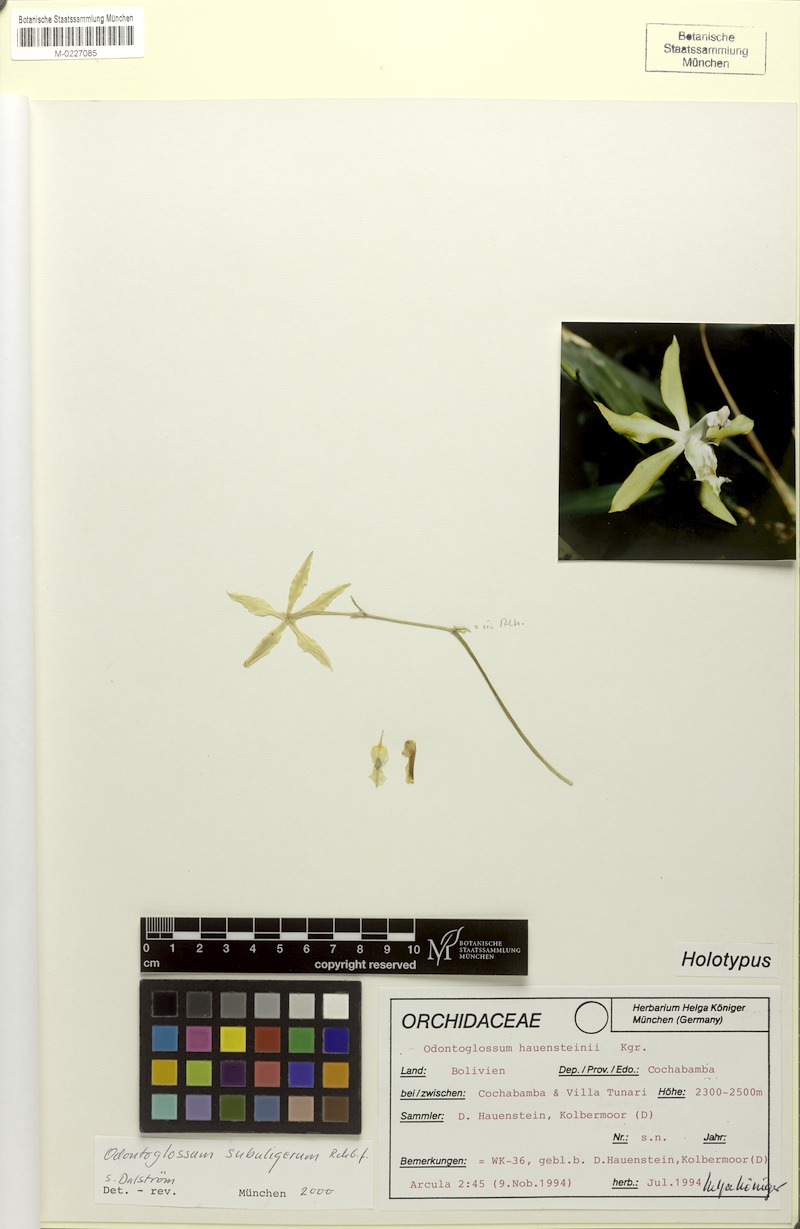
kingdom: Plantae
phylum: Tracheophyta
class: Liliopsida
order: Asparagales
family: Orchidaceae
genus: Oncidium
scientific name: Oncidium hauensteinii
